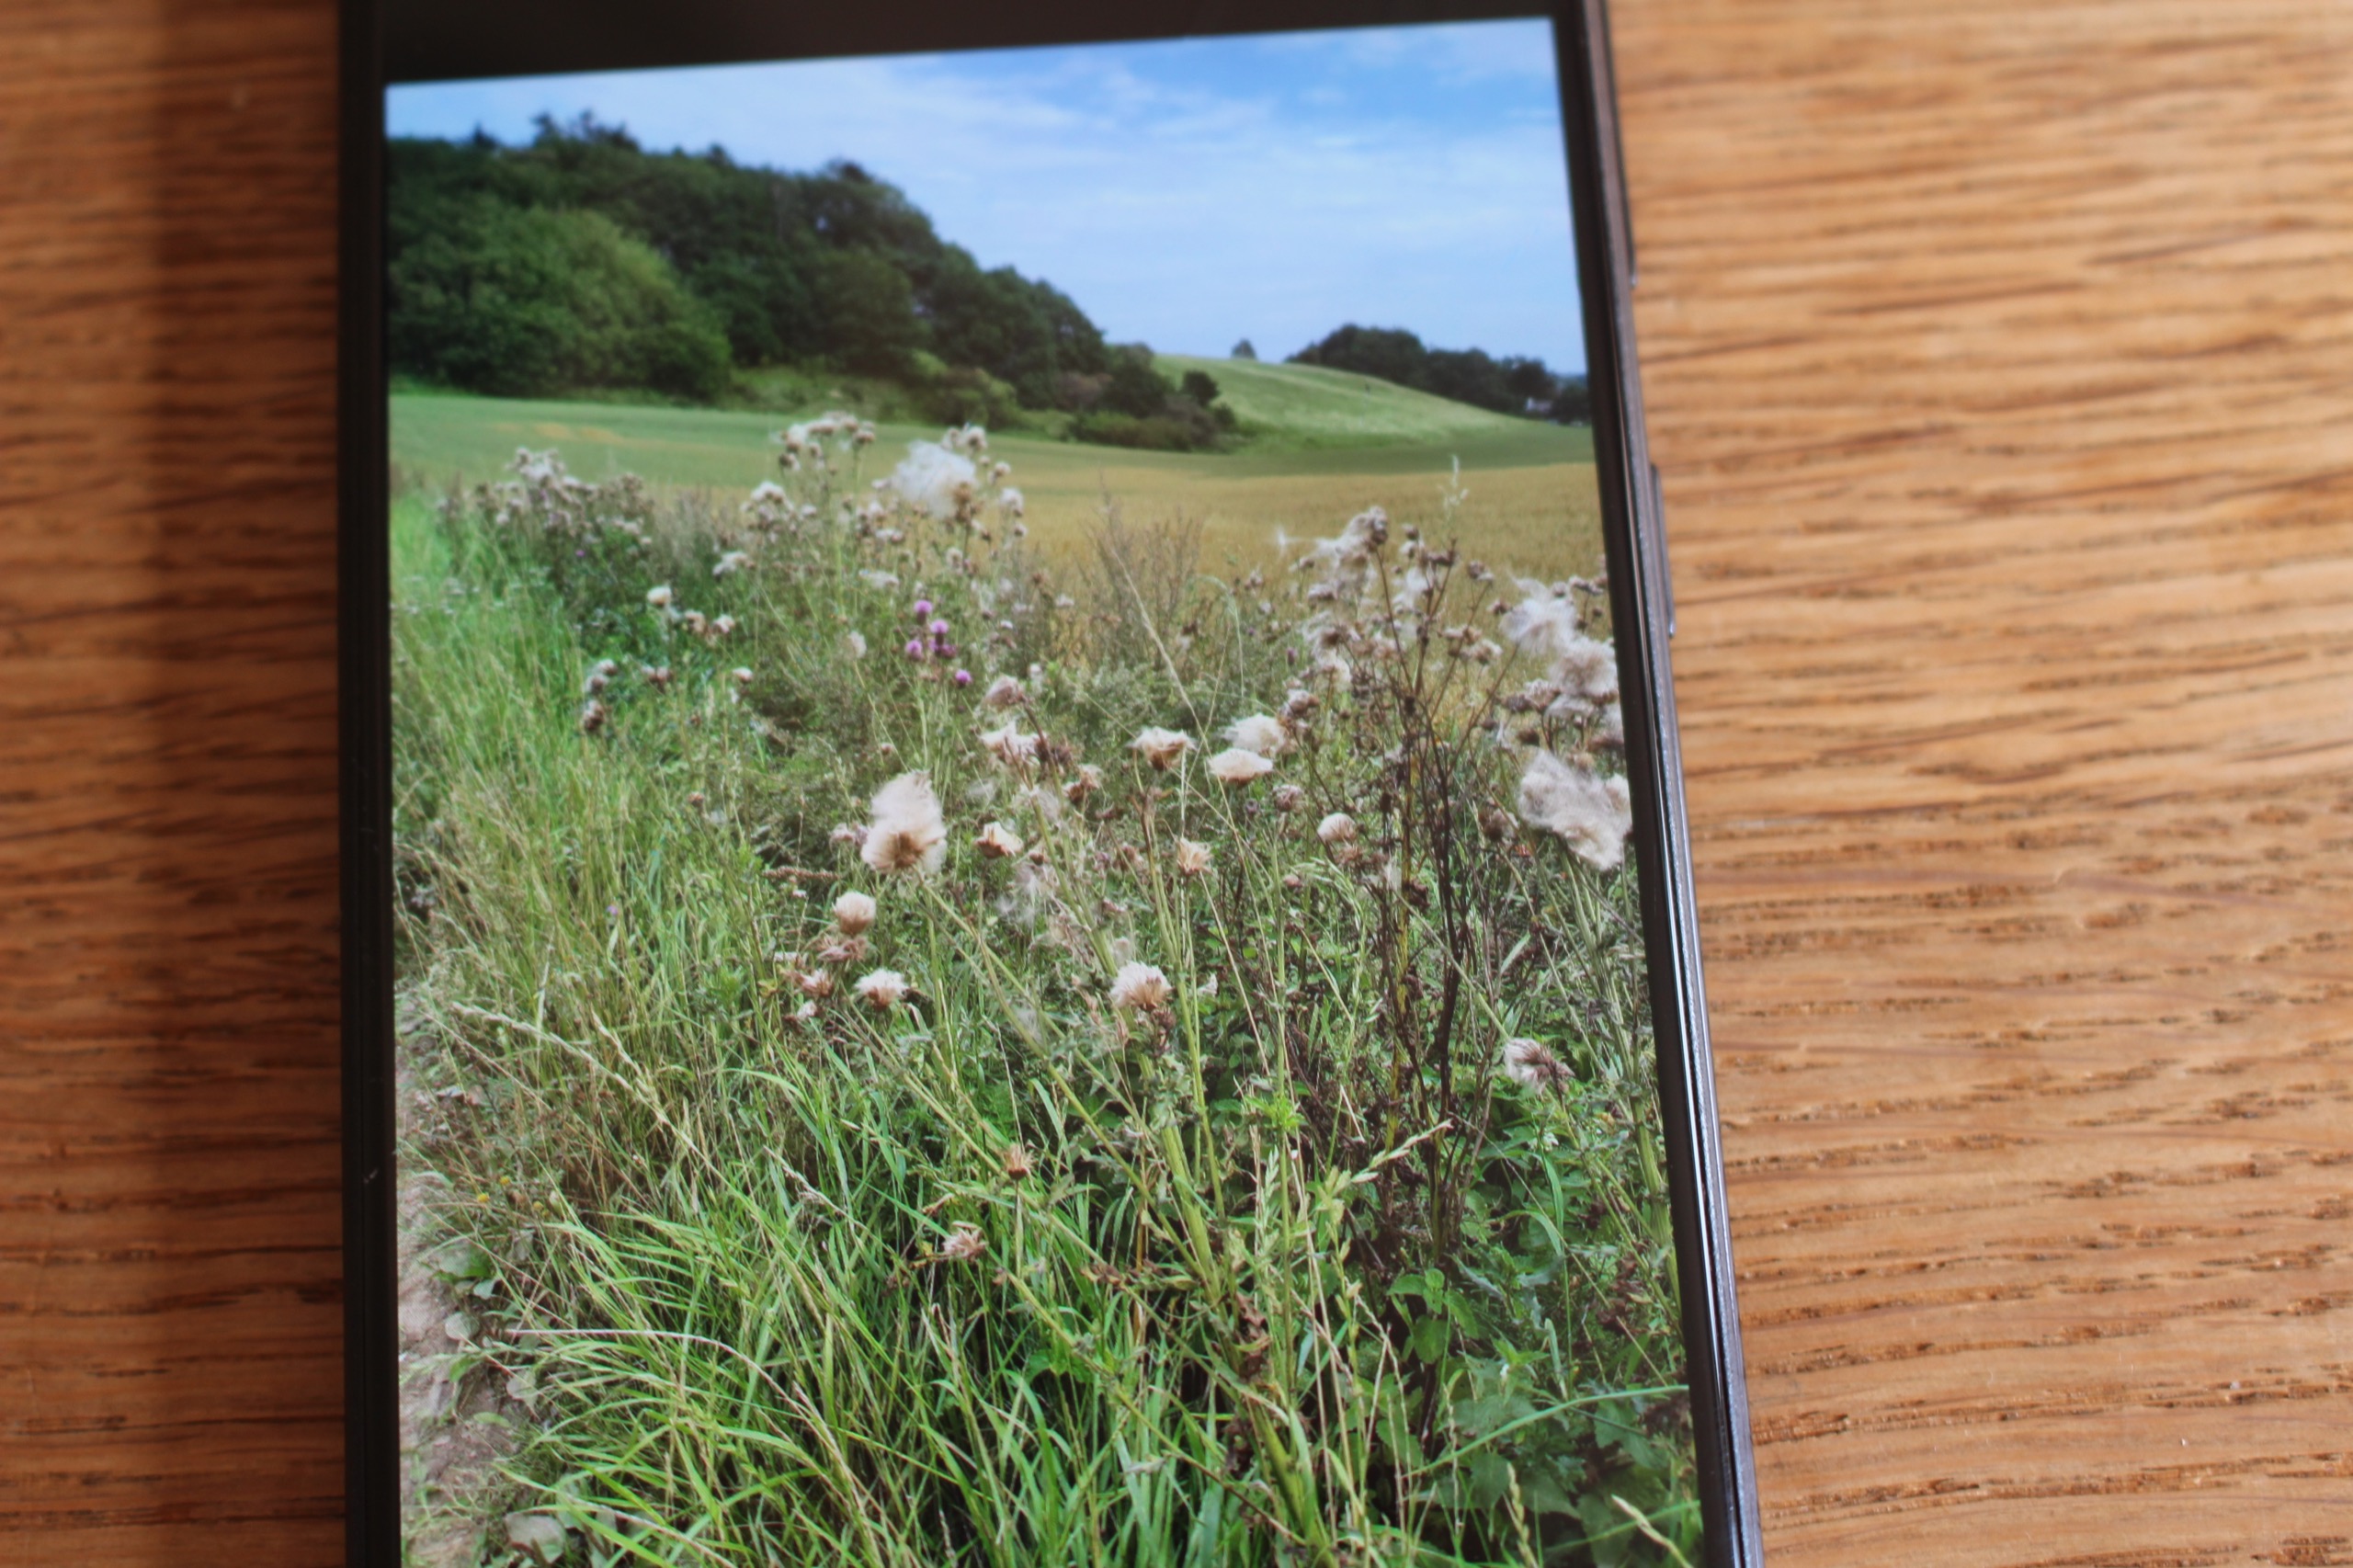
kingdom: Plantae
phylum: Tracheophyta
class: Magnoliopsida
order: Asterales
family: Asteraceae
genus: Cirsium
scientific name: Cirsium arvense
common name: Ager-tidsel
